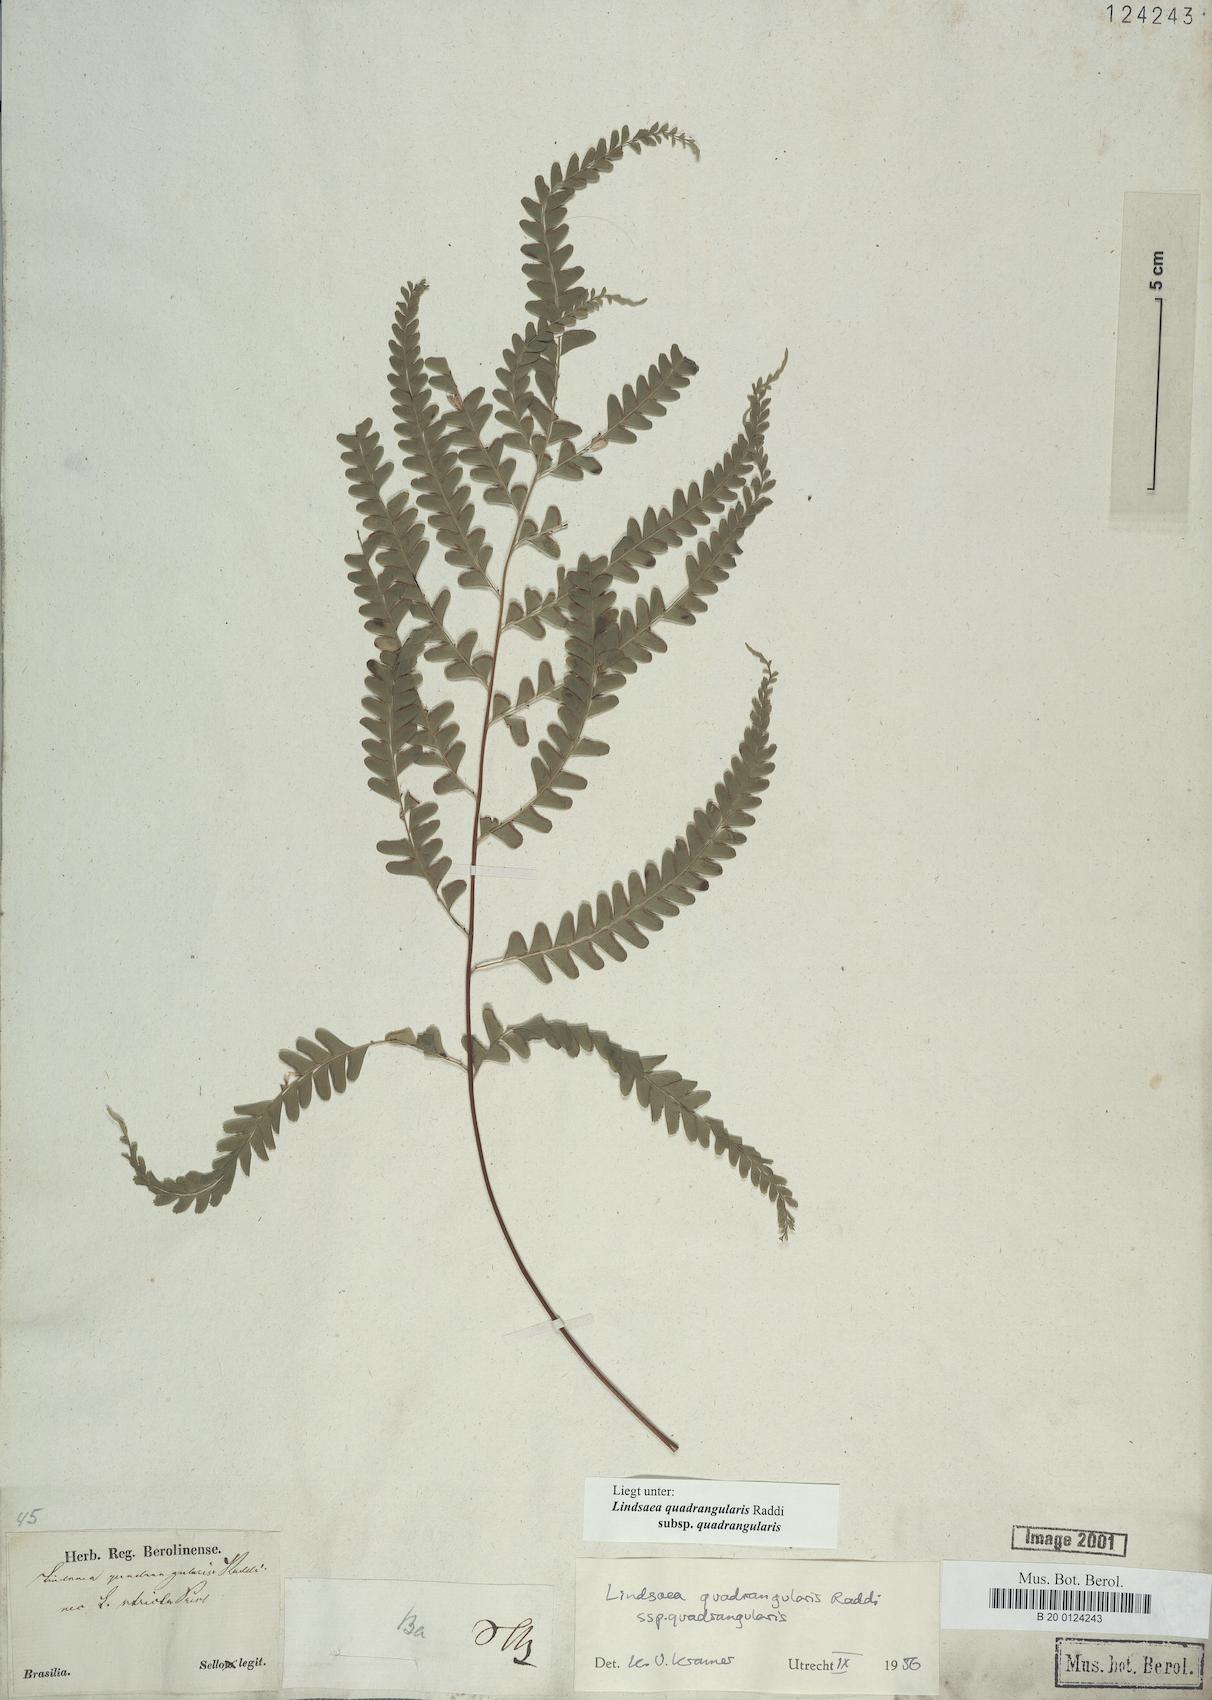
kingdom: Plantae
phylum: Tracheophyta
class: Polypodiopsida
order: Polypodiales
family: Lindsaeaceae
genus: Lindsaea
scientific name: Lindsaea quadrangularis
